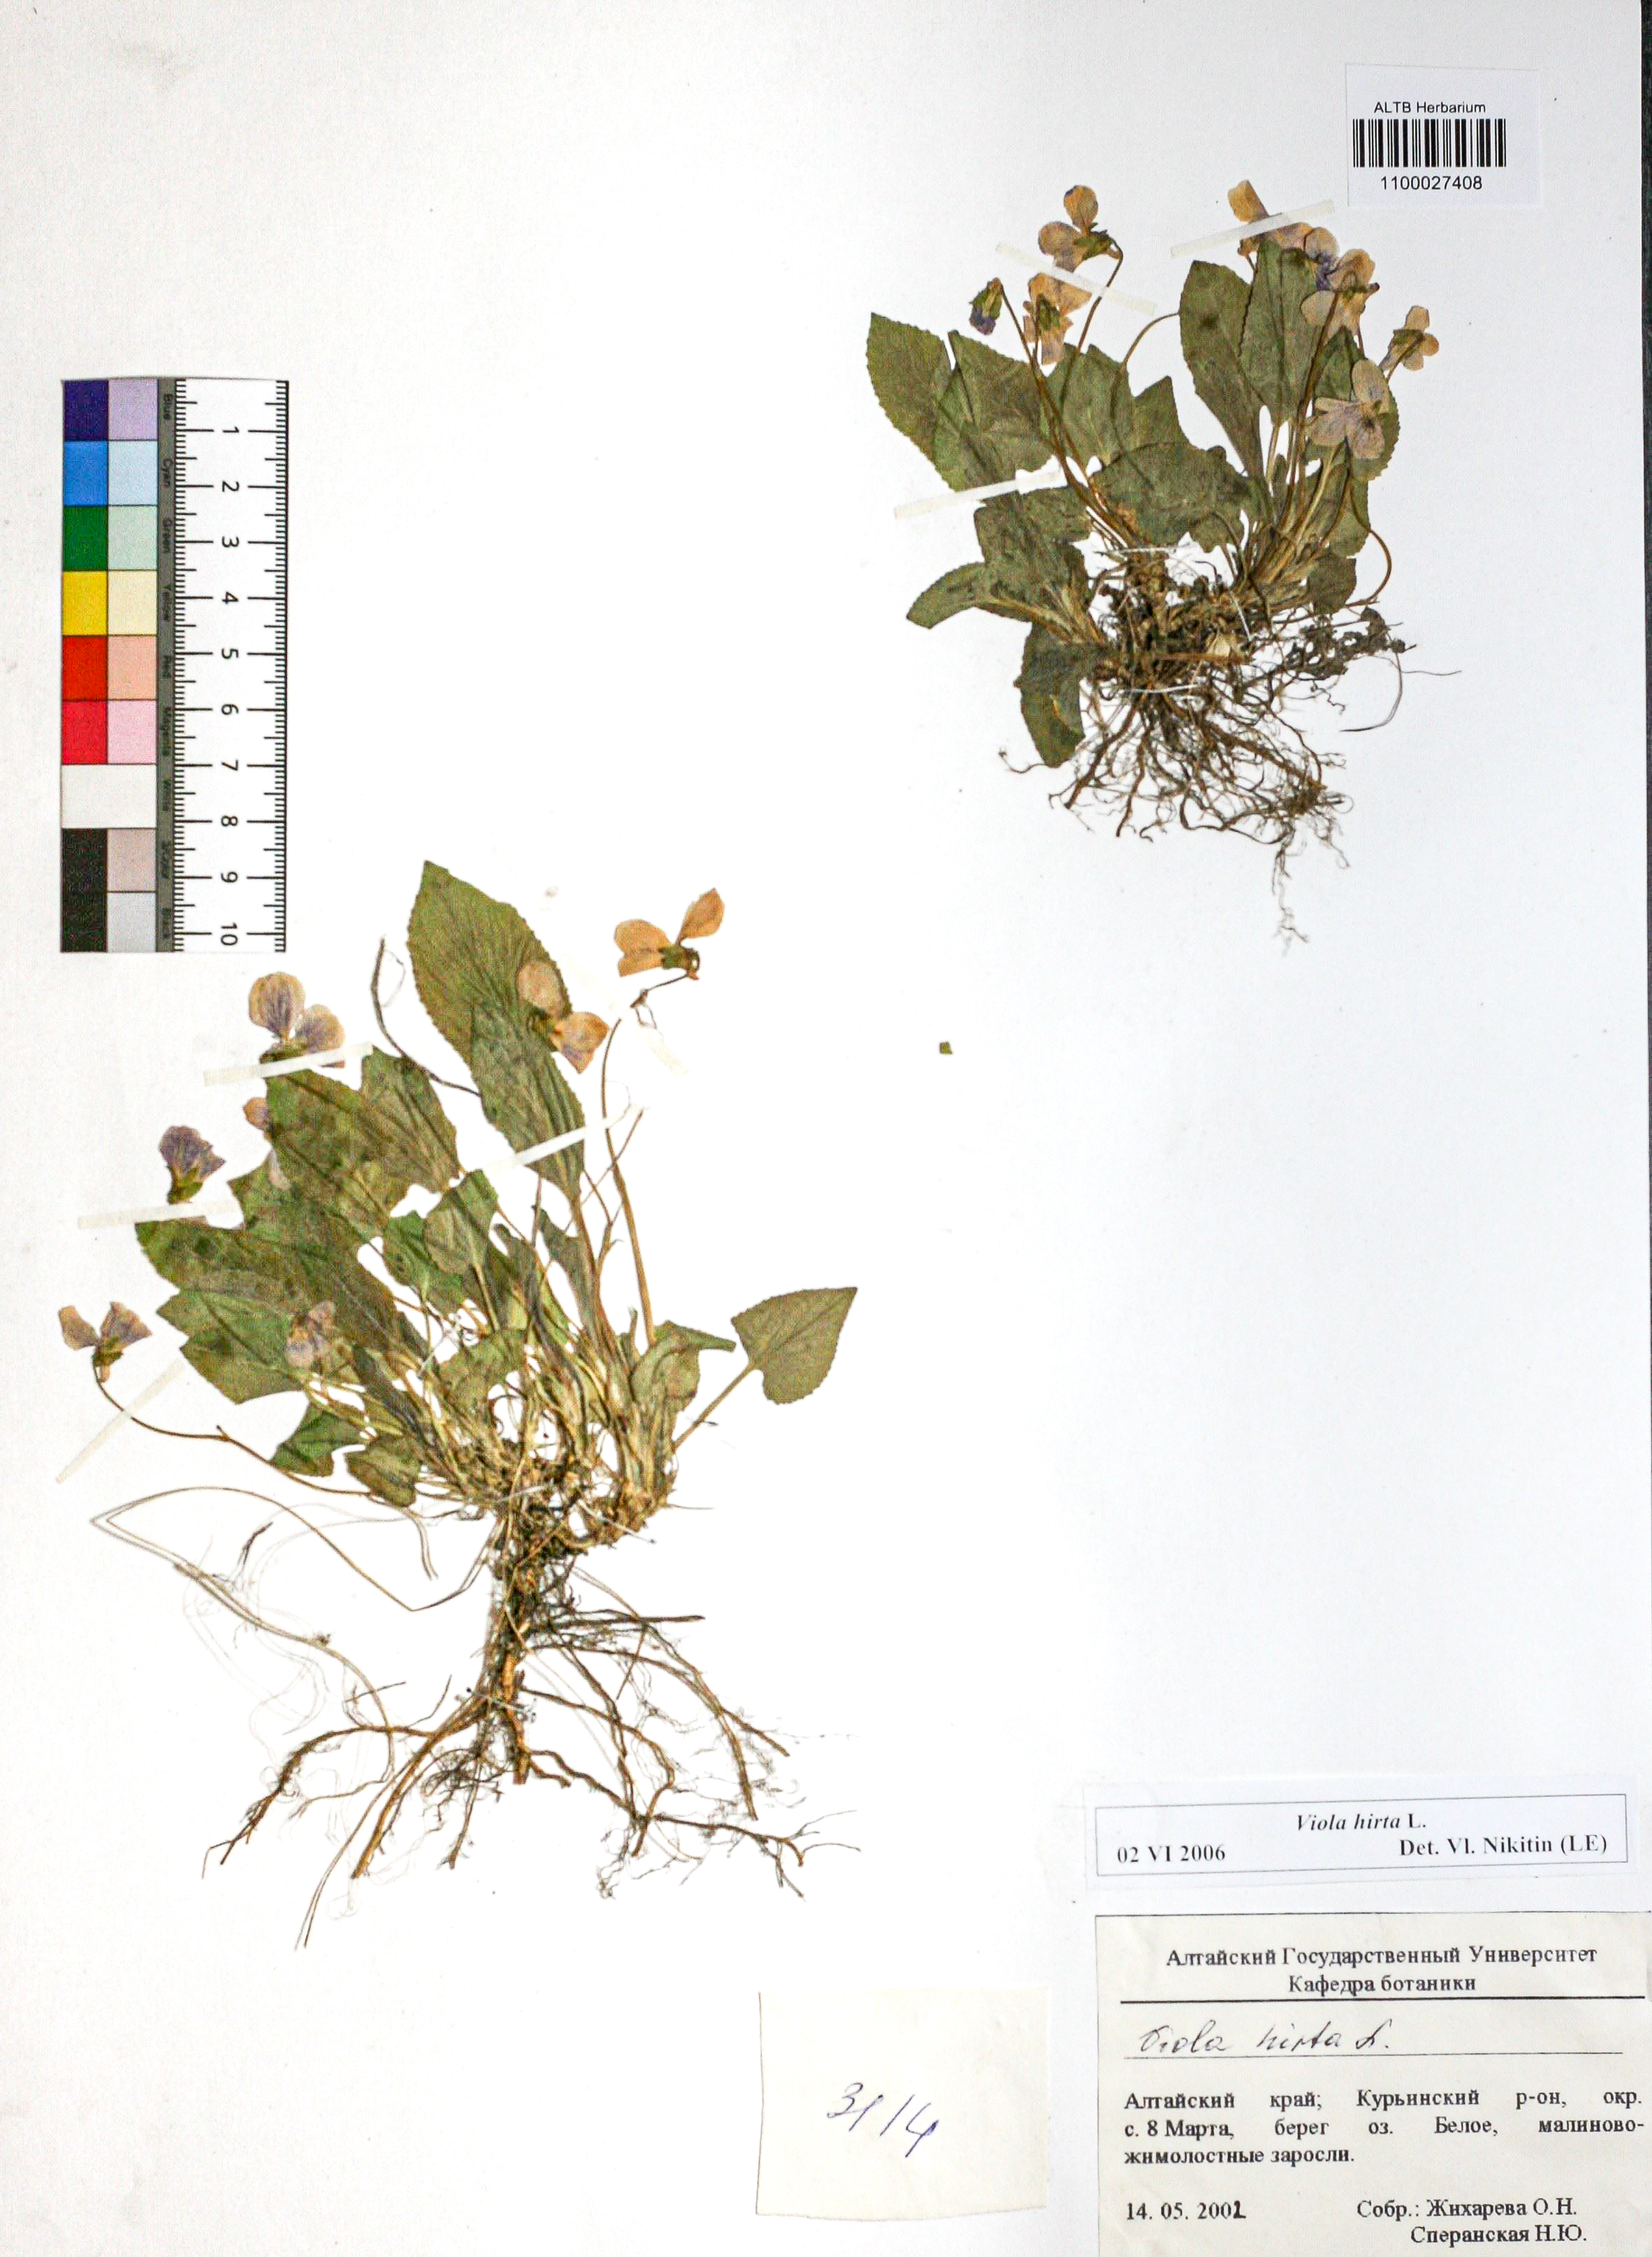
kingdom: Plantae
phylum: Tracheophyta
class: Magnoliopsida
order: Malpighiales
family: Violaceae
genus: Viola
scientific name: Viola hirta
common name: Hairy violet
